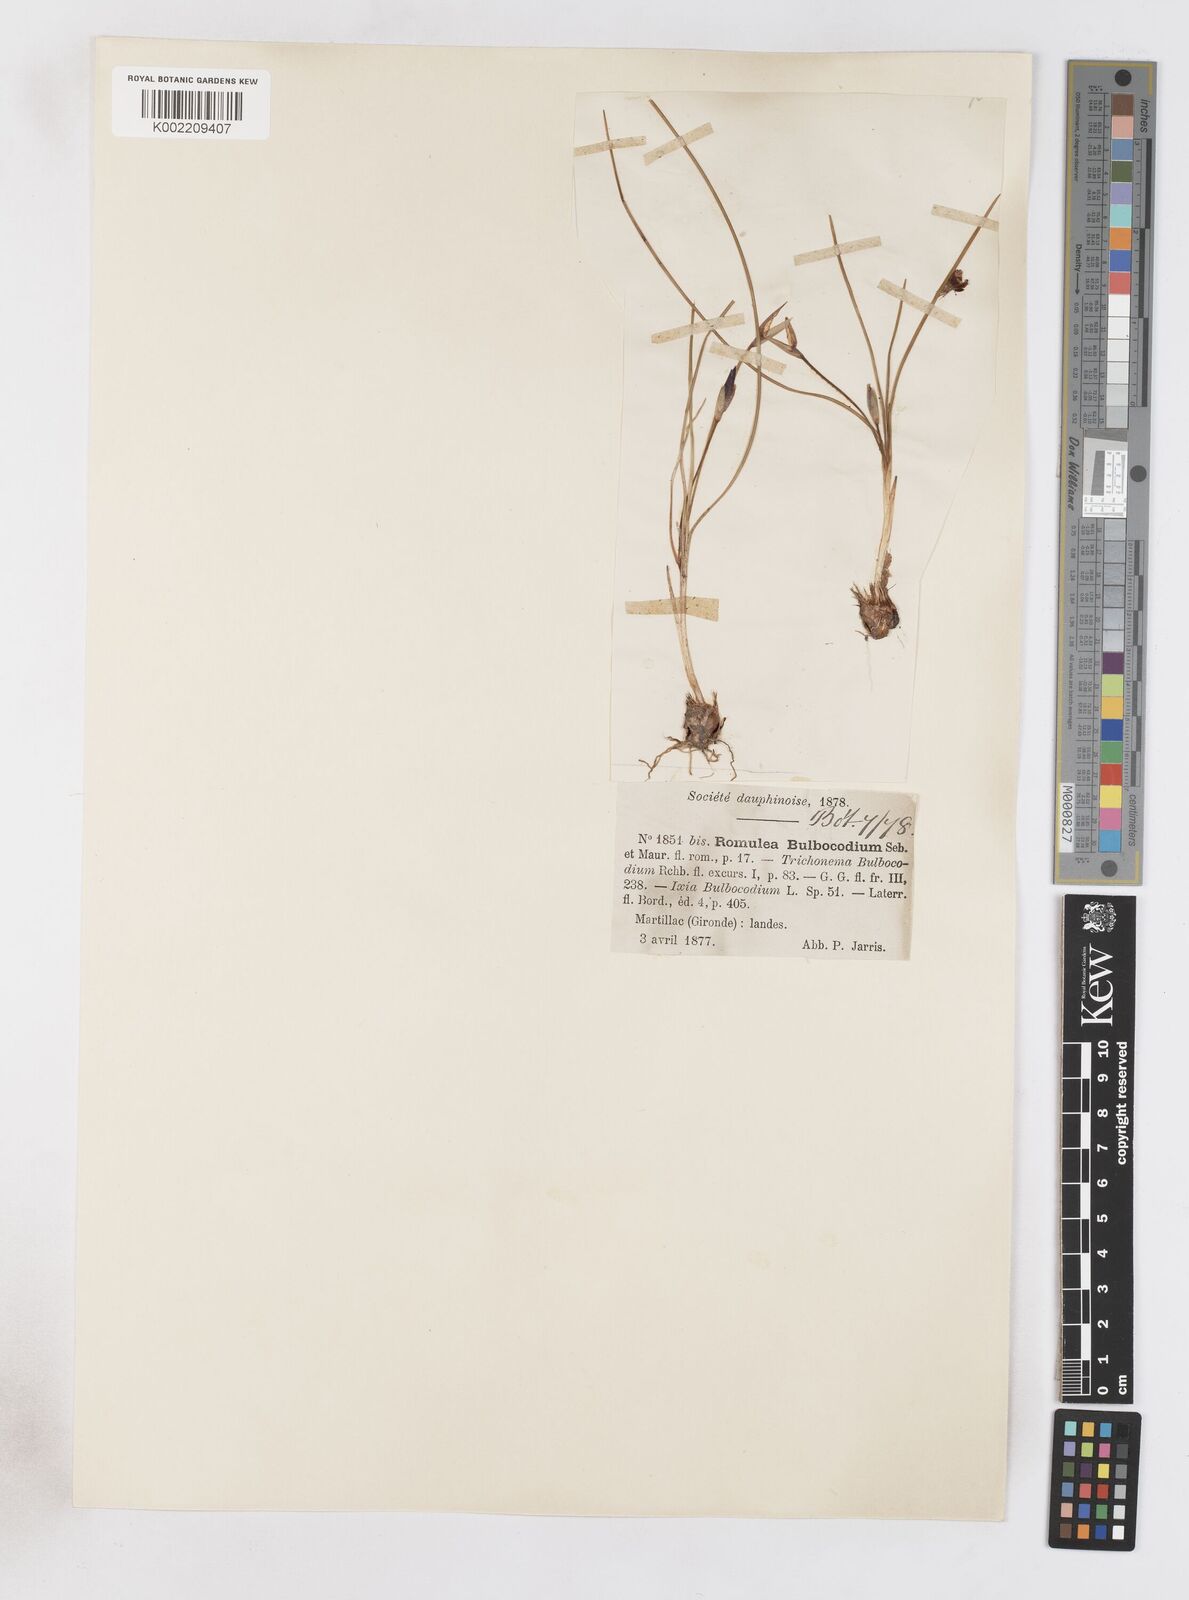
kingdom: Plantae
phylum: Tracheophyta
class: Liliopsida
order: Asparagales
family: Iridaceae
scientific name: Iridaceae
